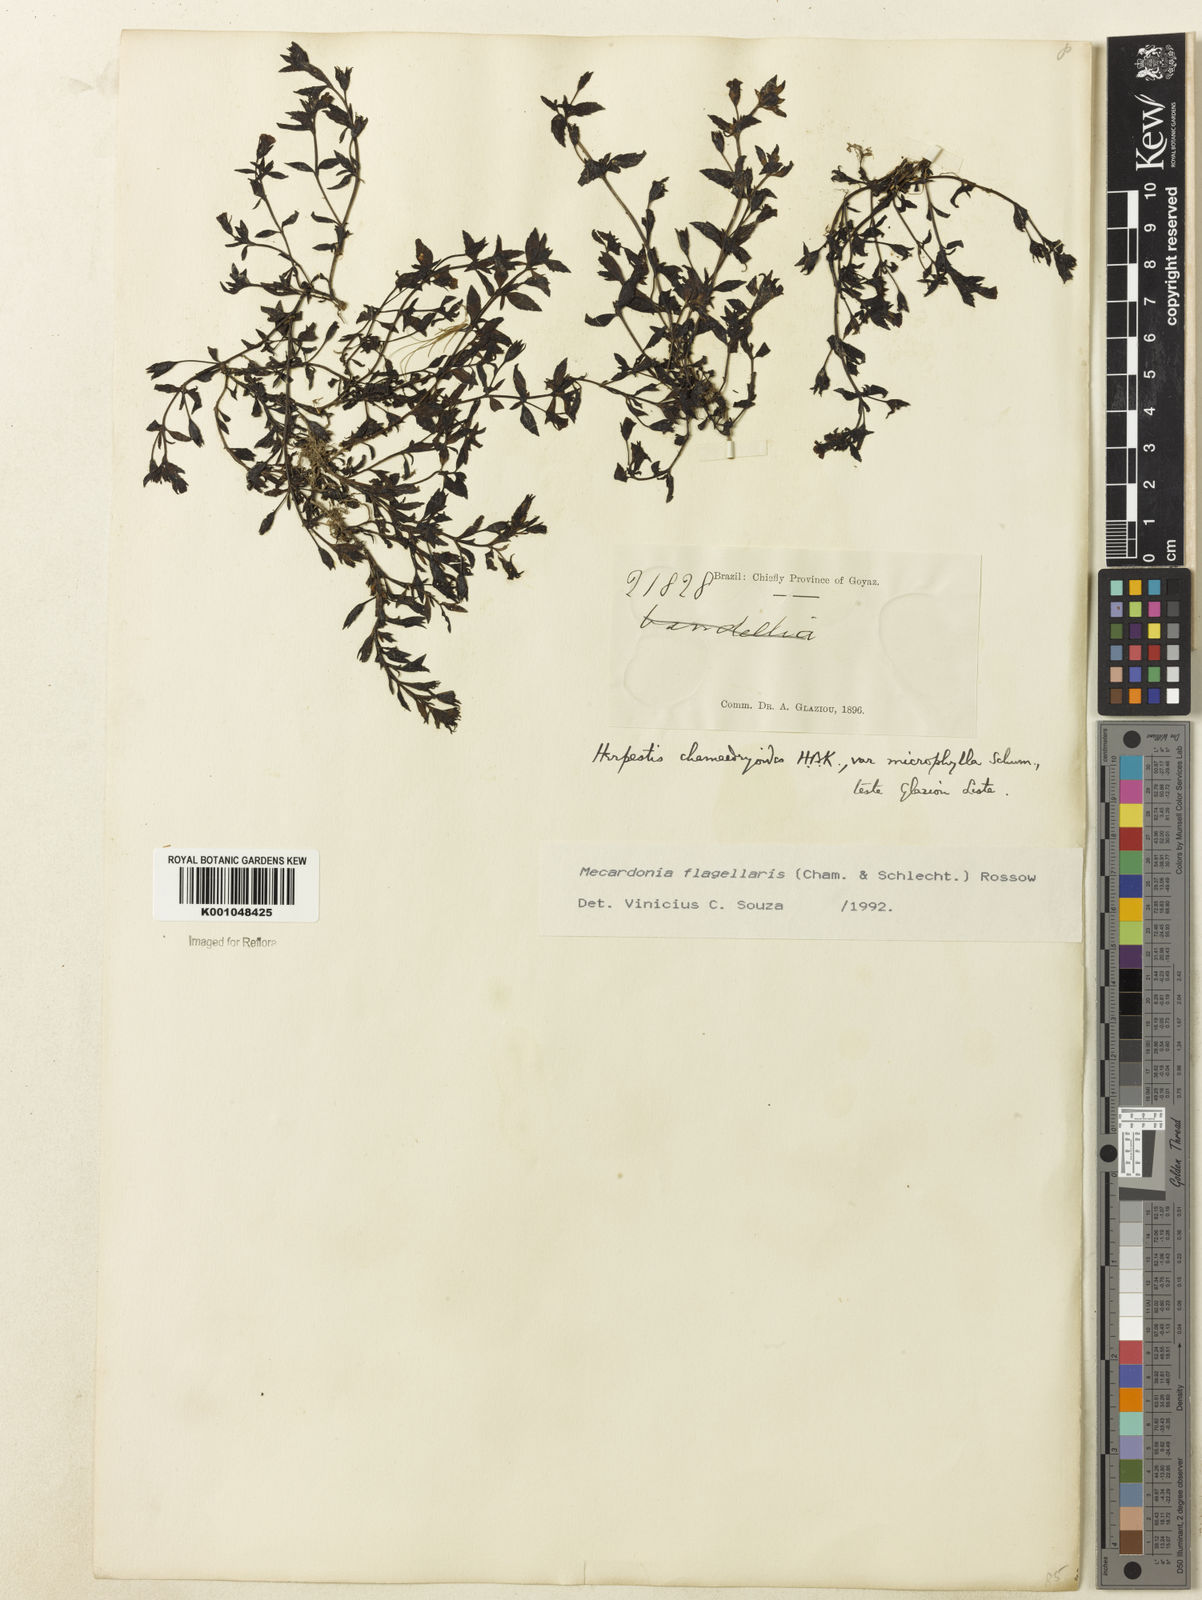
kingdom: Plantae
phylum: Tracheophyta
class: Magnoliopsida
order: Lamiales
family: Plantaginaceae
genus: Mecardonia
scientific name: Mecardonia flagellaris
